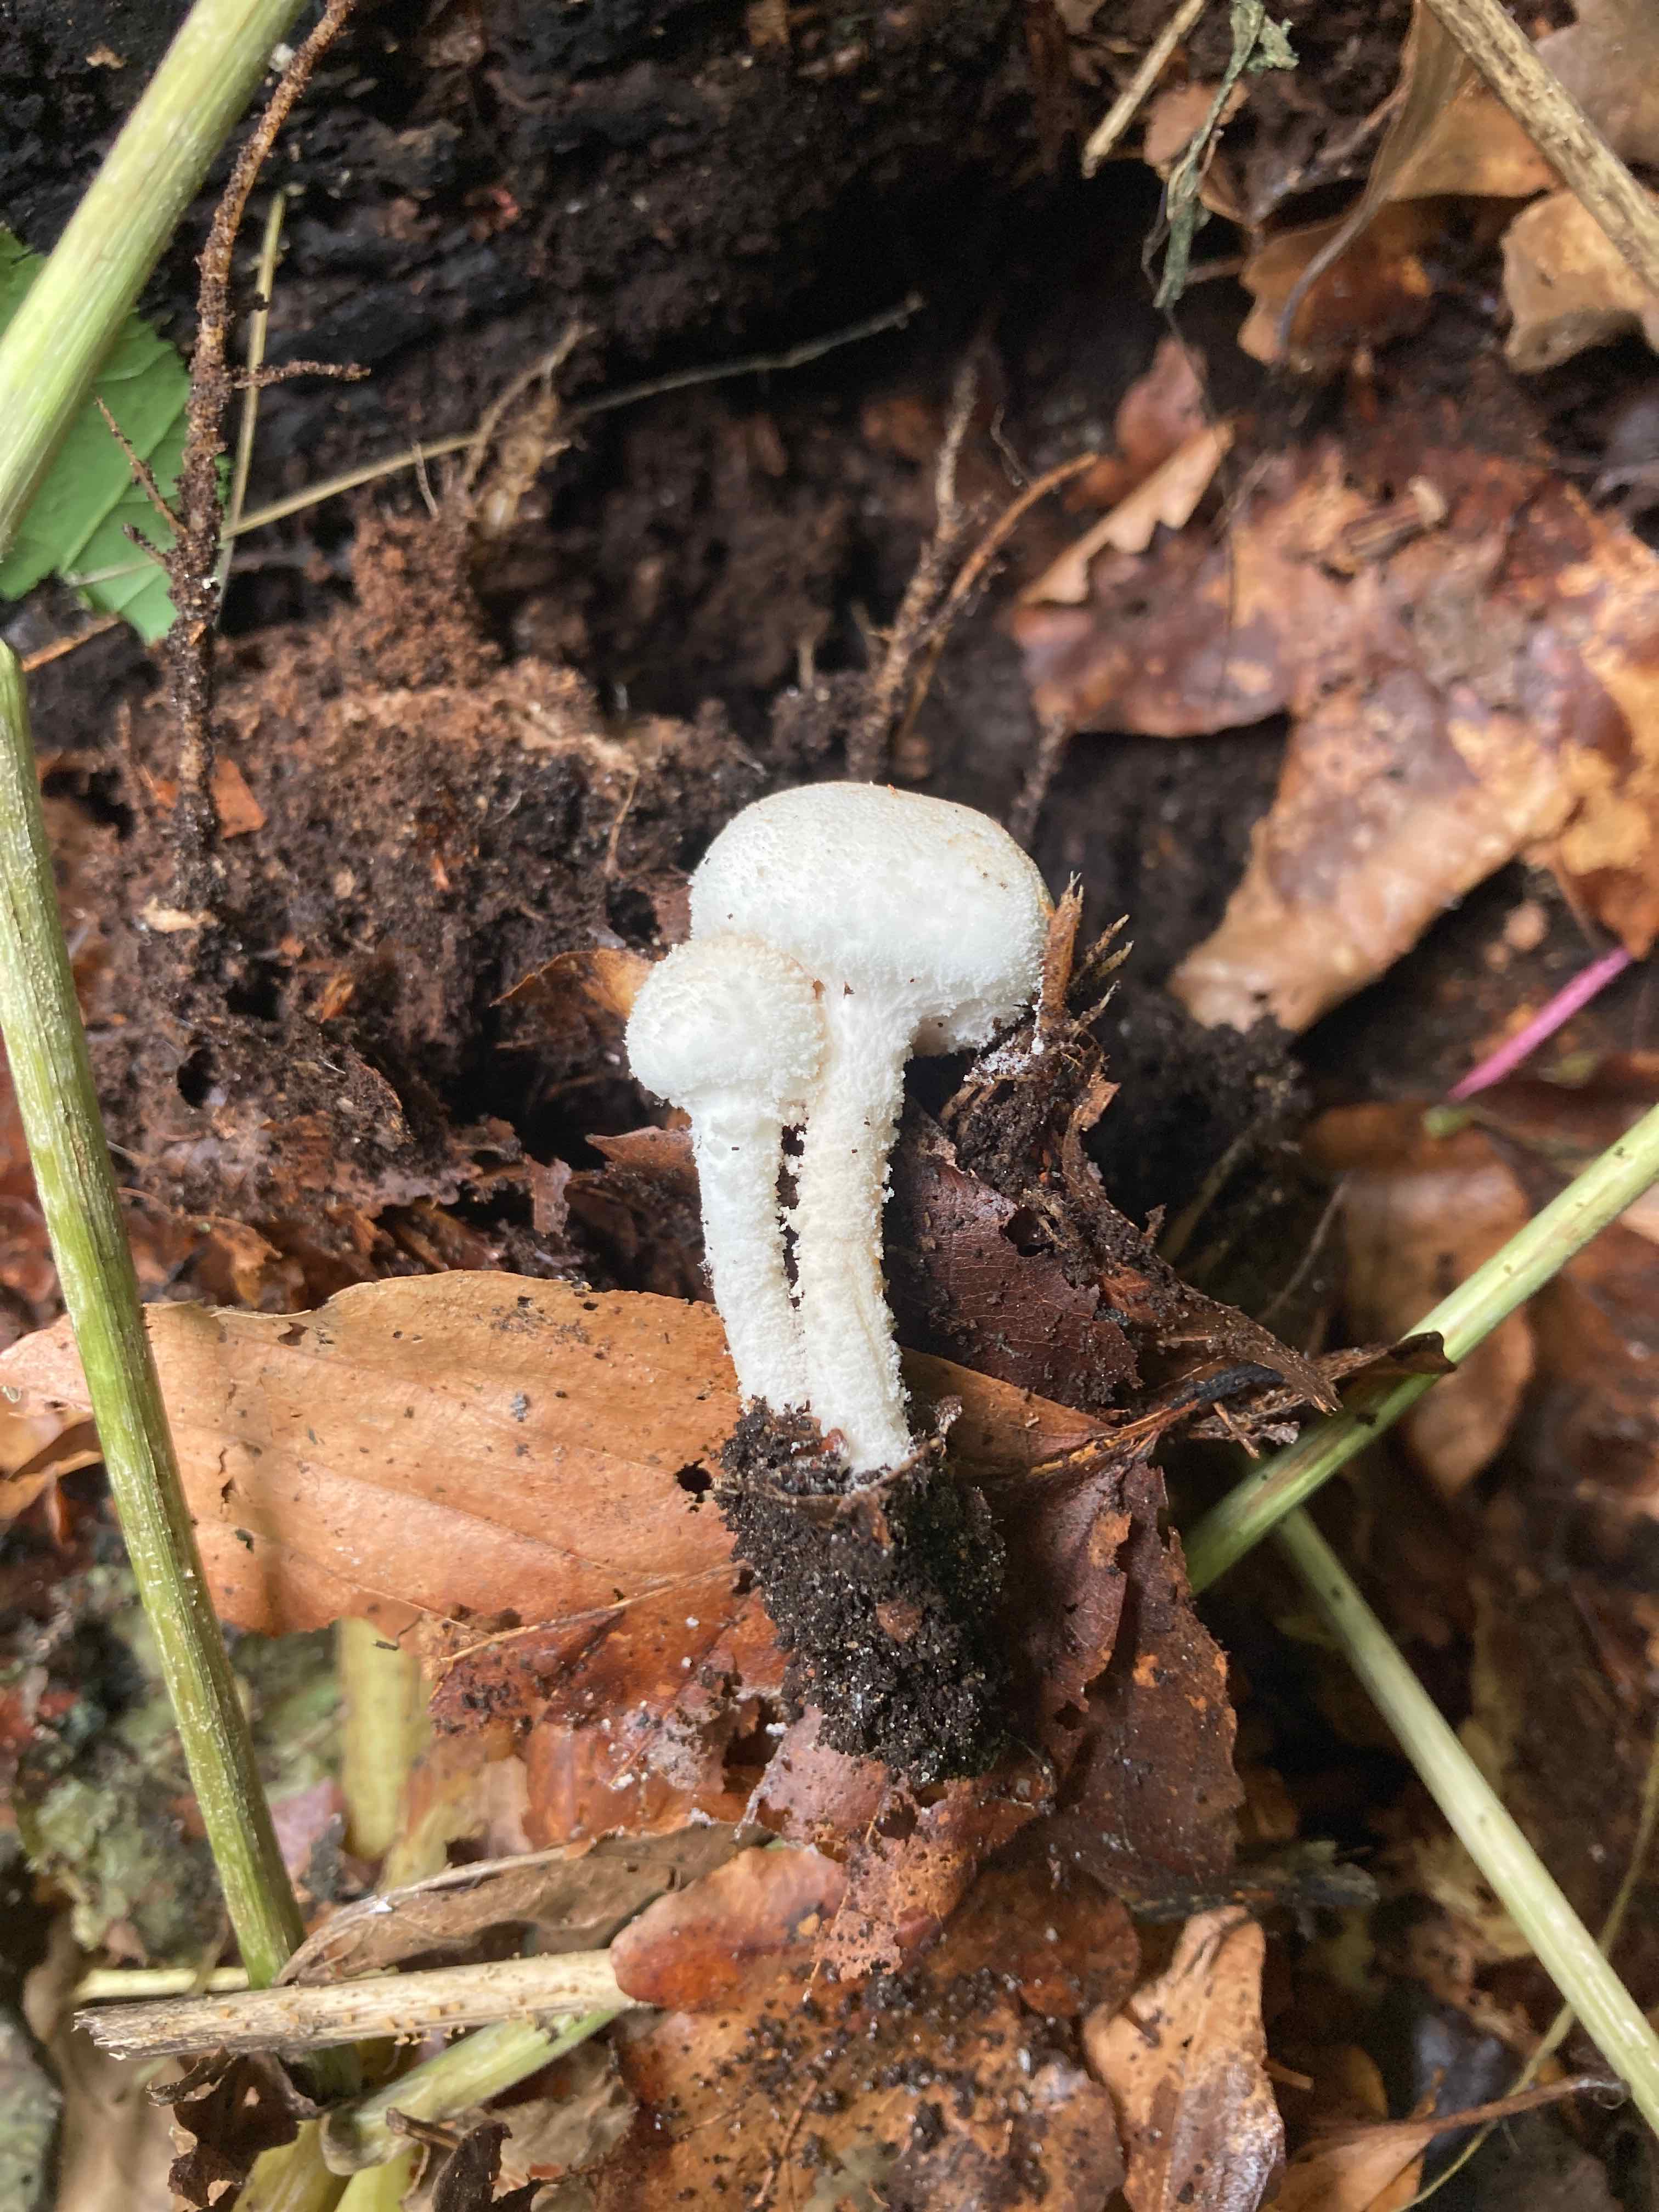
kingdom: Fungi
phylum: Basidiomycota
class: Agaricomycetes
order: Agaricales
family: Agaricaceae
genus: Cystolepiota
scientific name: Cystolepiota hetieri
